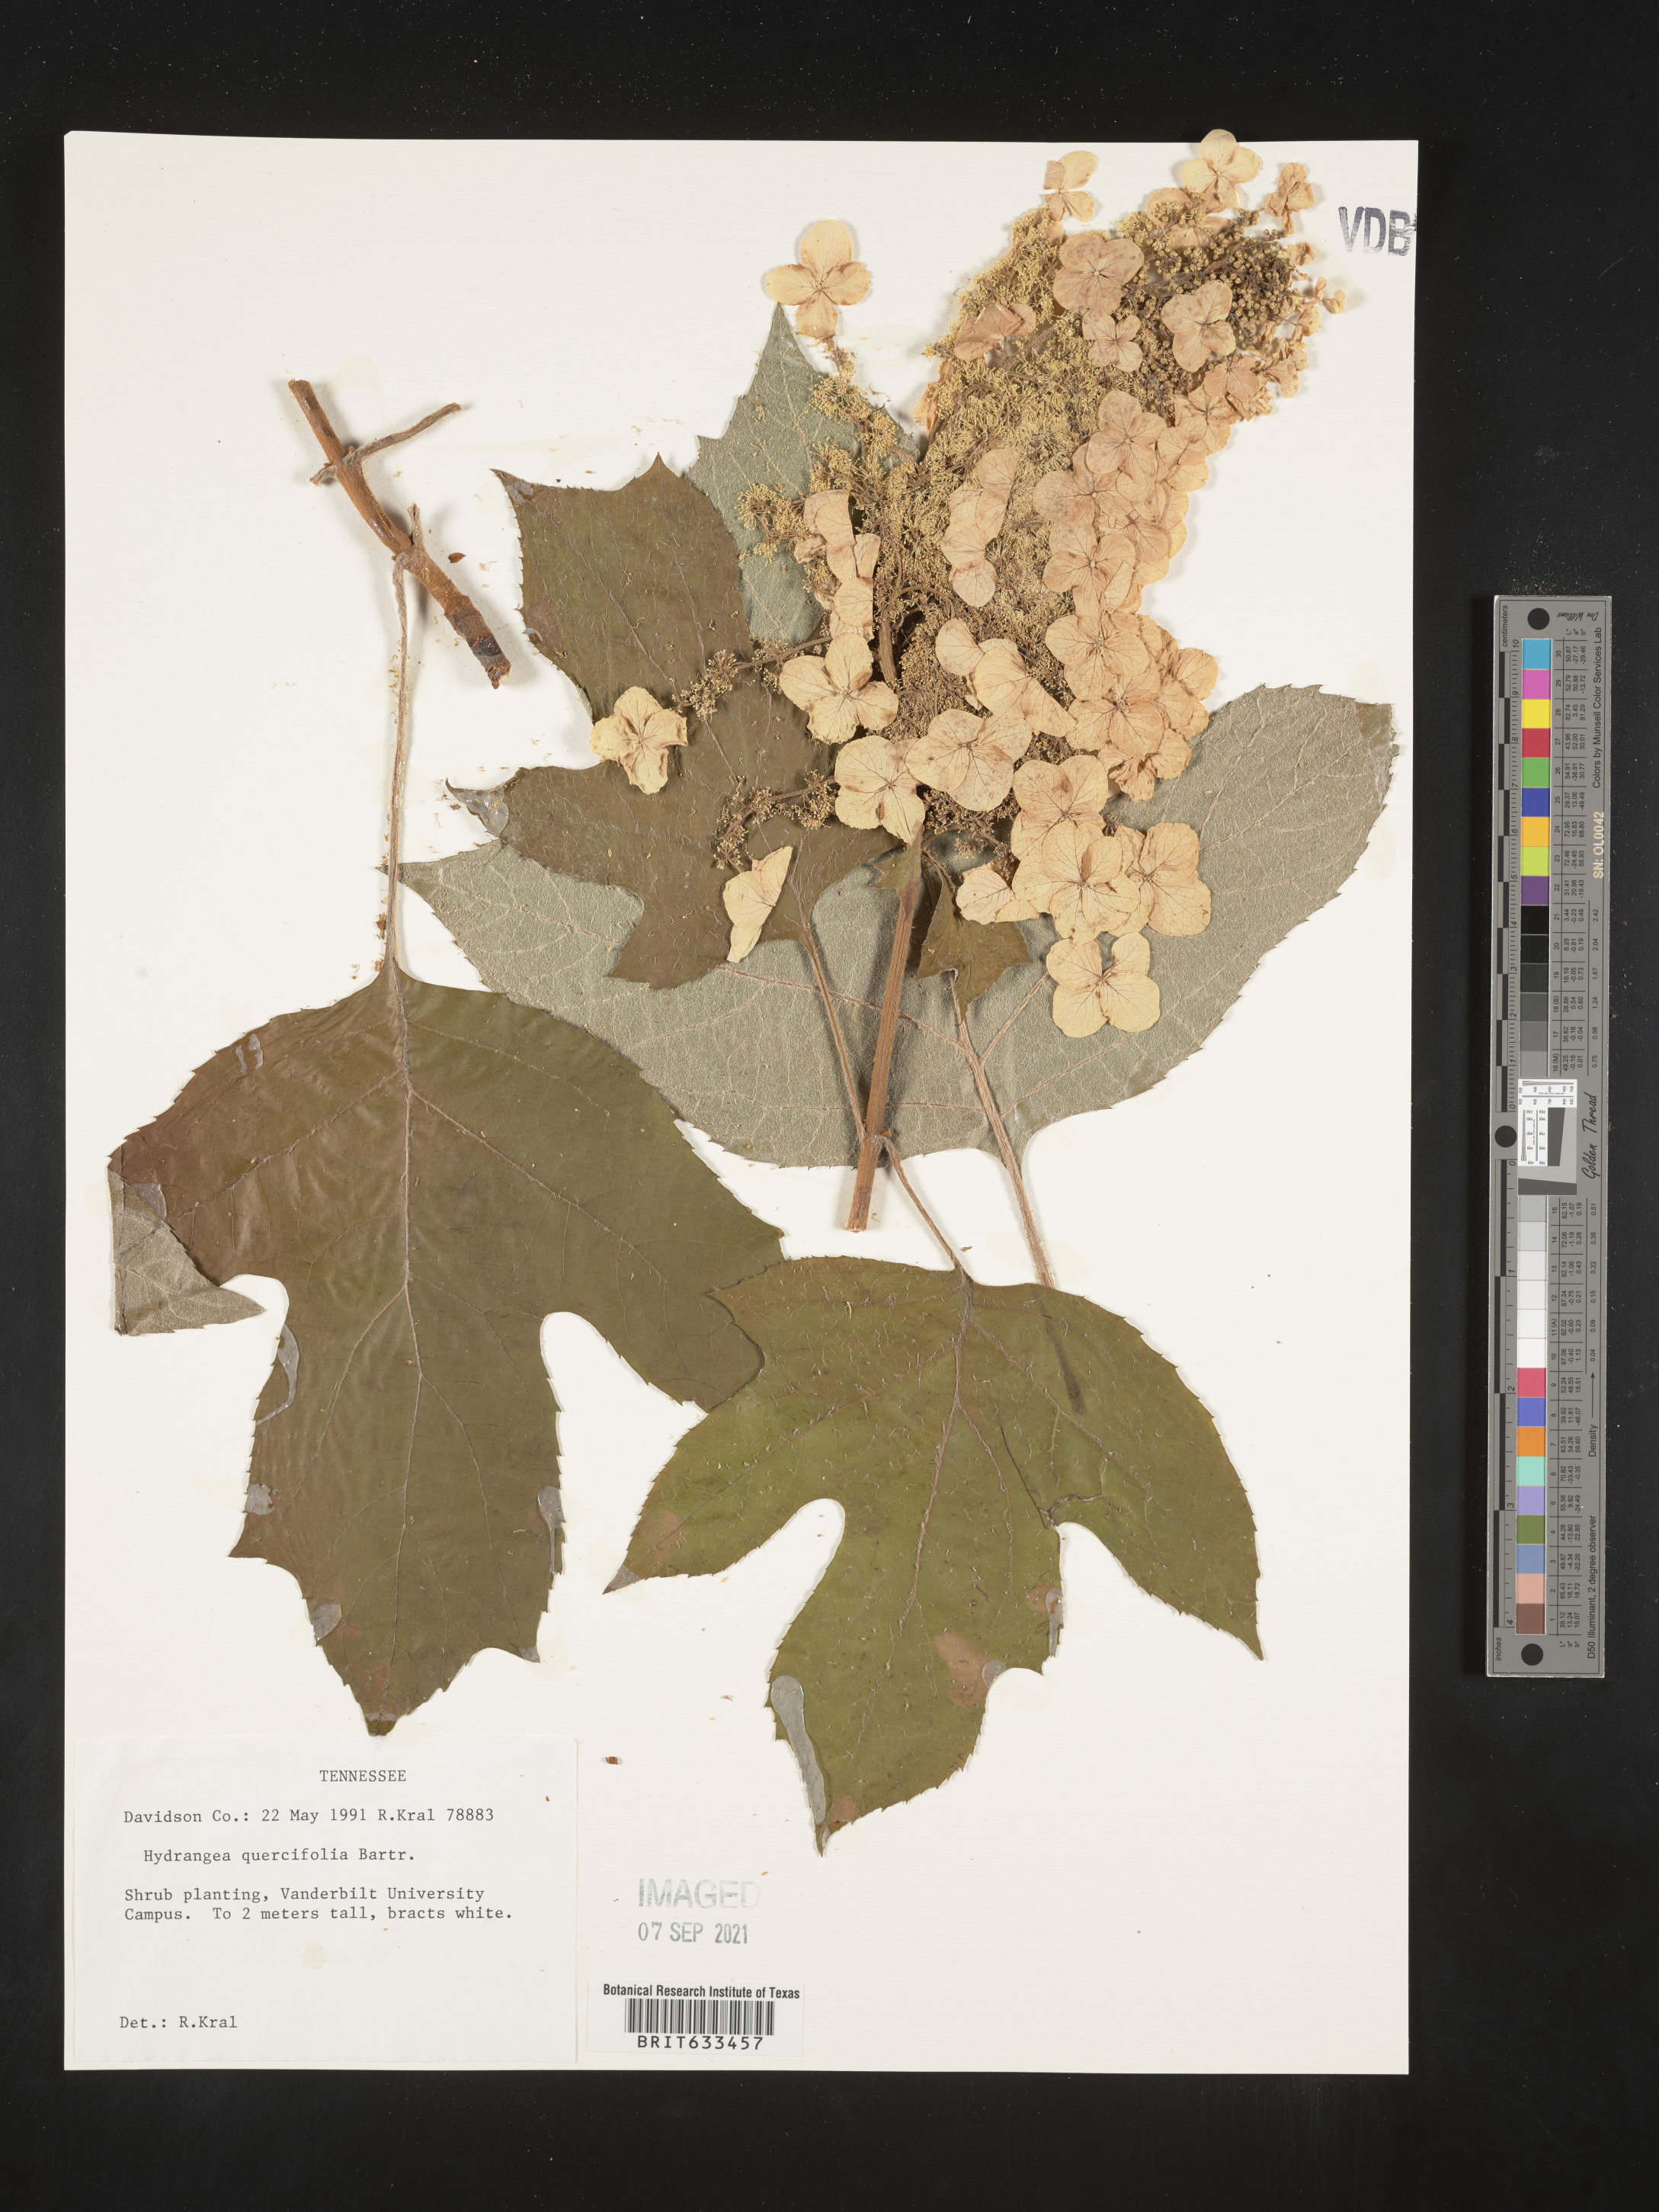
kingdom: Plantae
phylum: Tracheophyta
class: Magnoliopsida
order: Cornales
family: Hydrangeaceae
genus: Hydrangea
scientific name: Hydrangea
